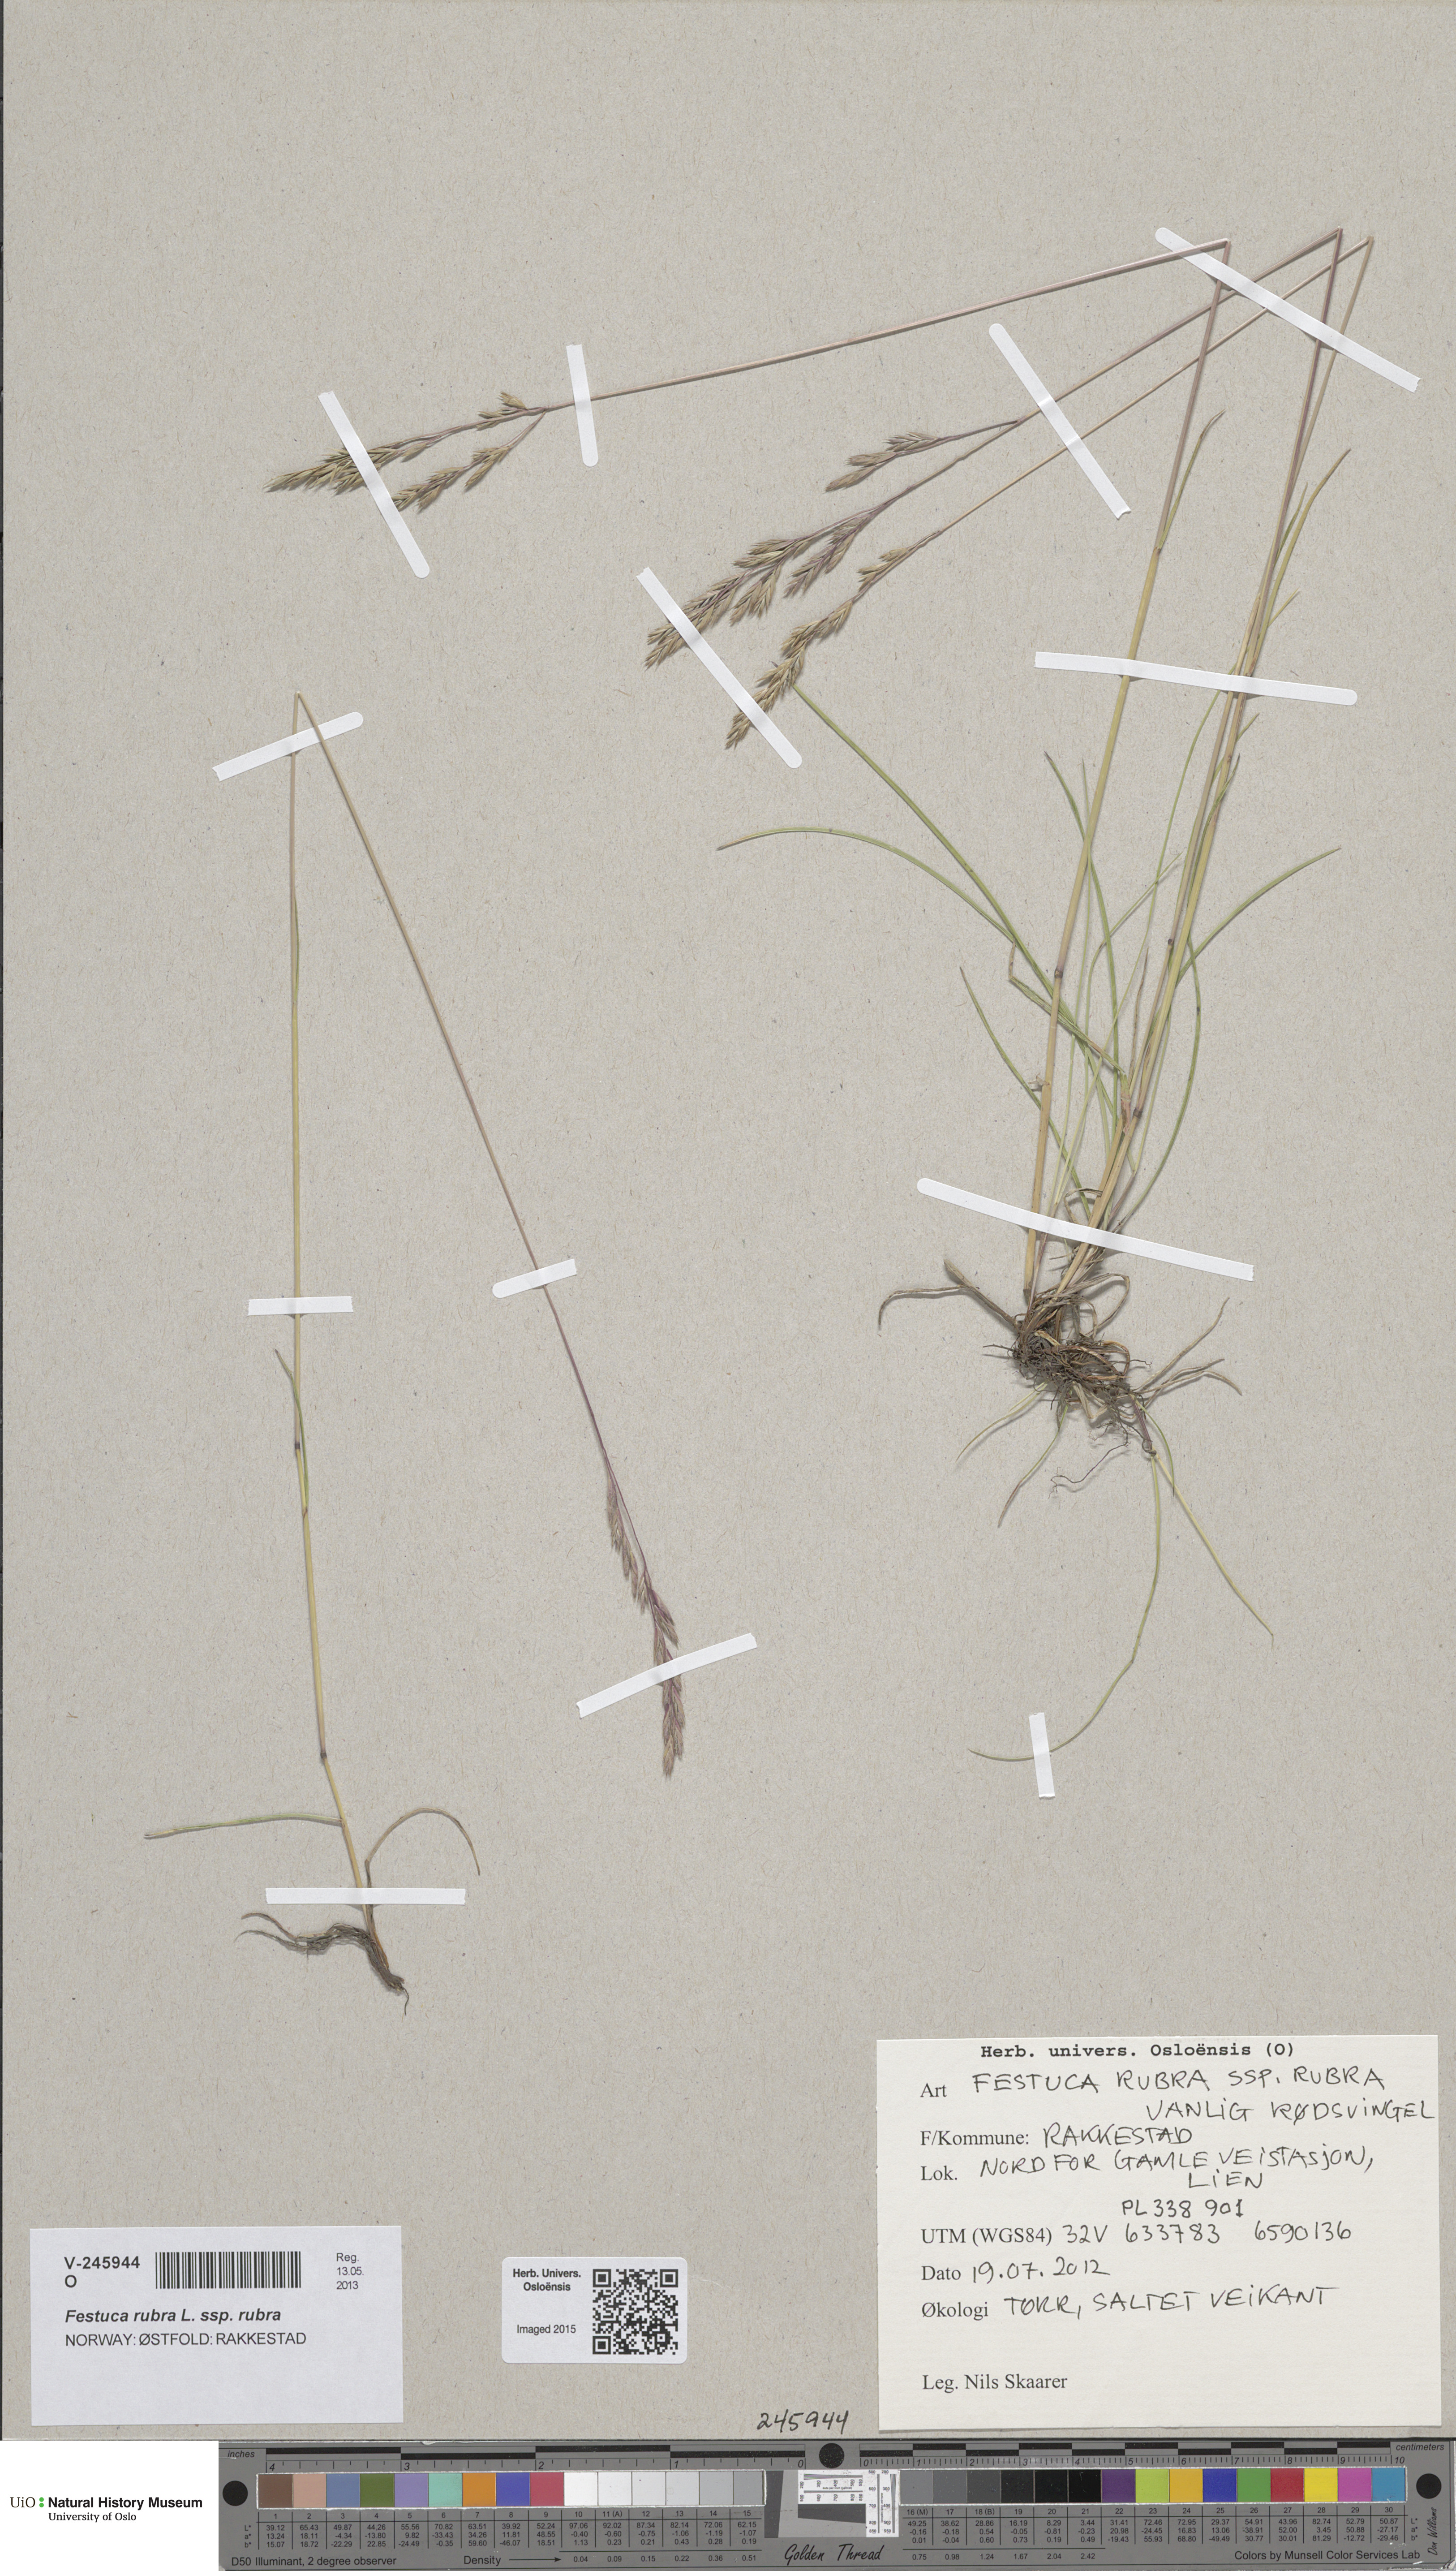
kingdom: Plantae
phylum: Tracheophyta
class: Liliopsida
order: Poales
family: Poaceae
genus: Festuca
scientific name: Festuca rubra
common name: Red fescue
